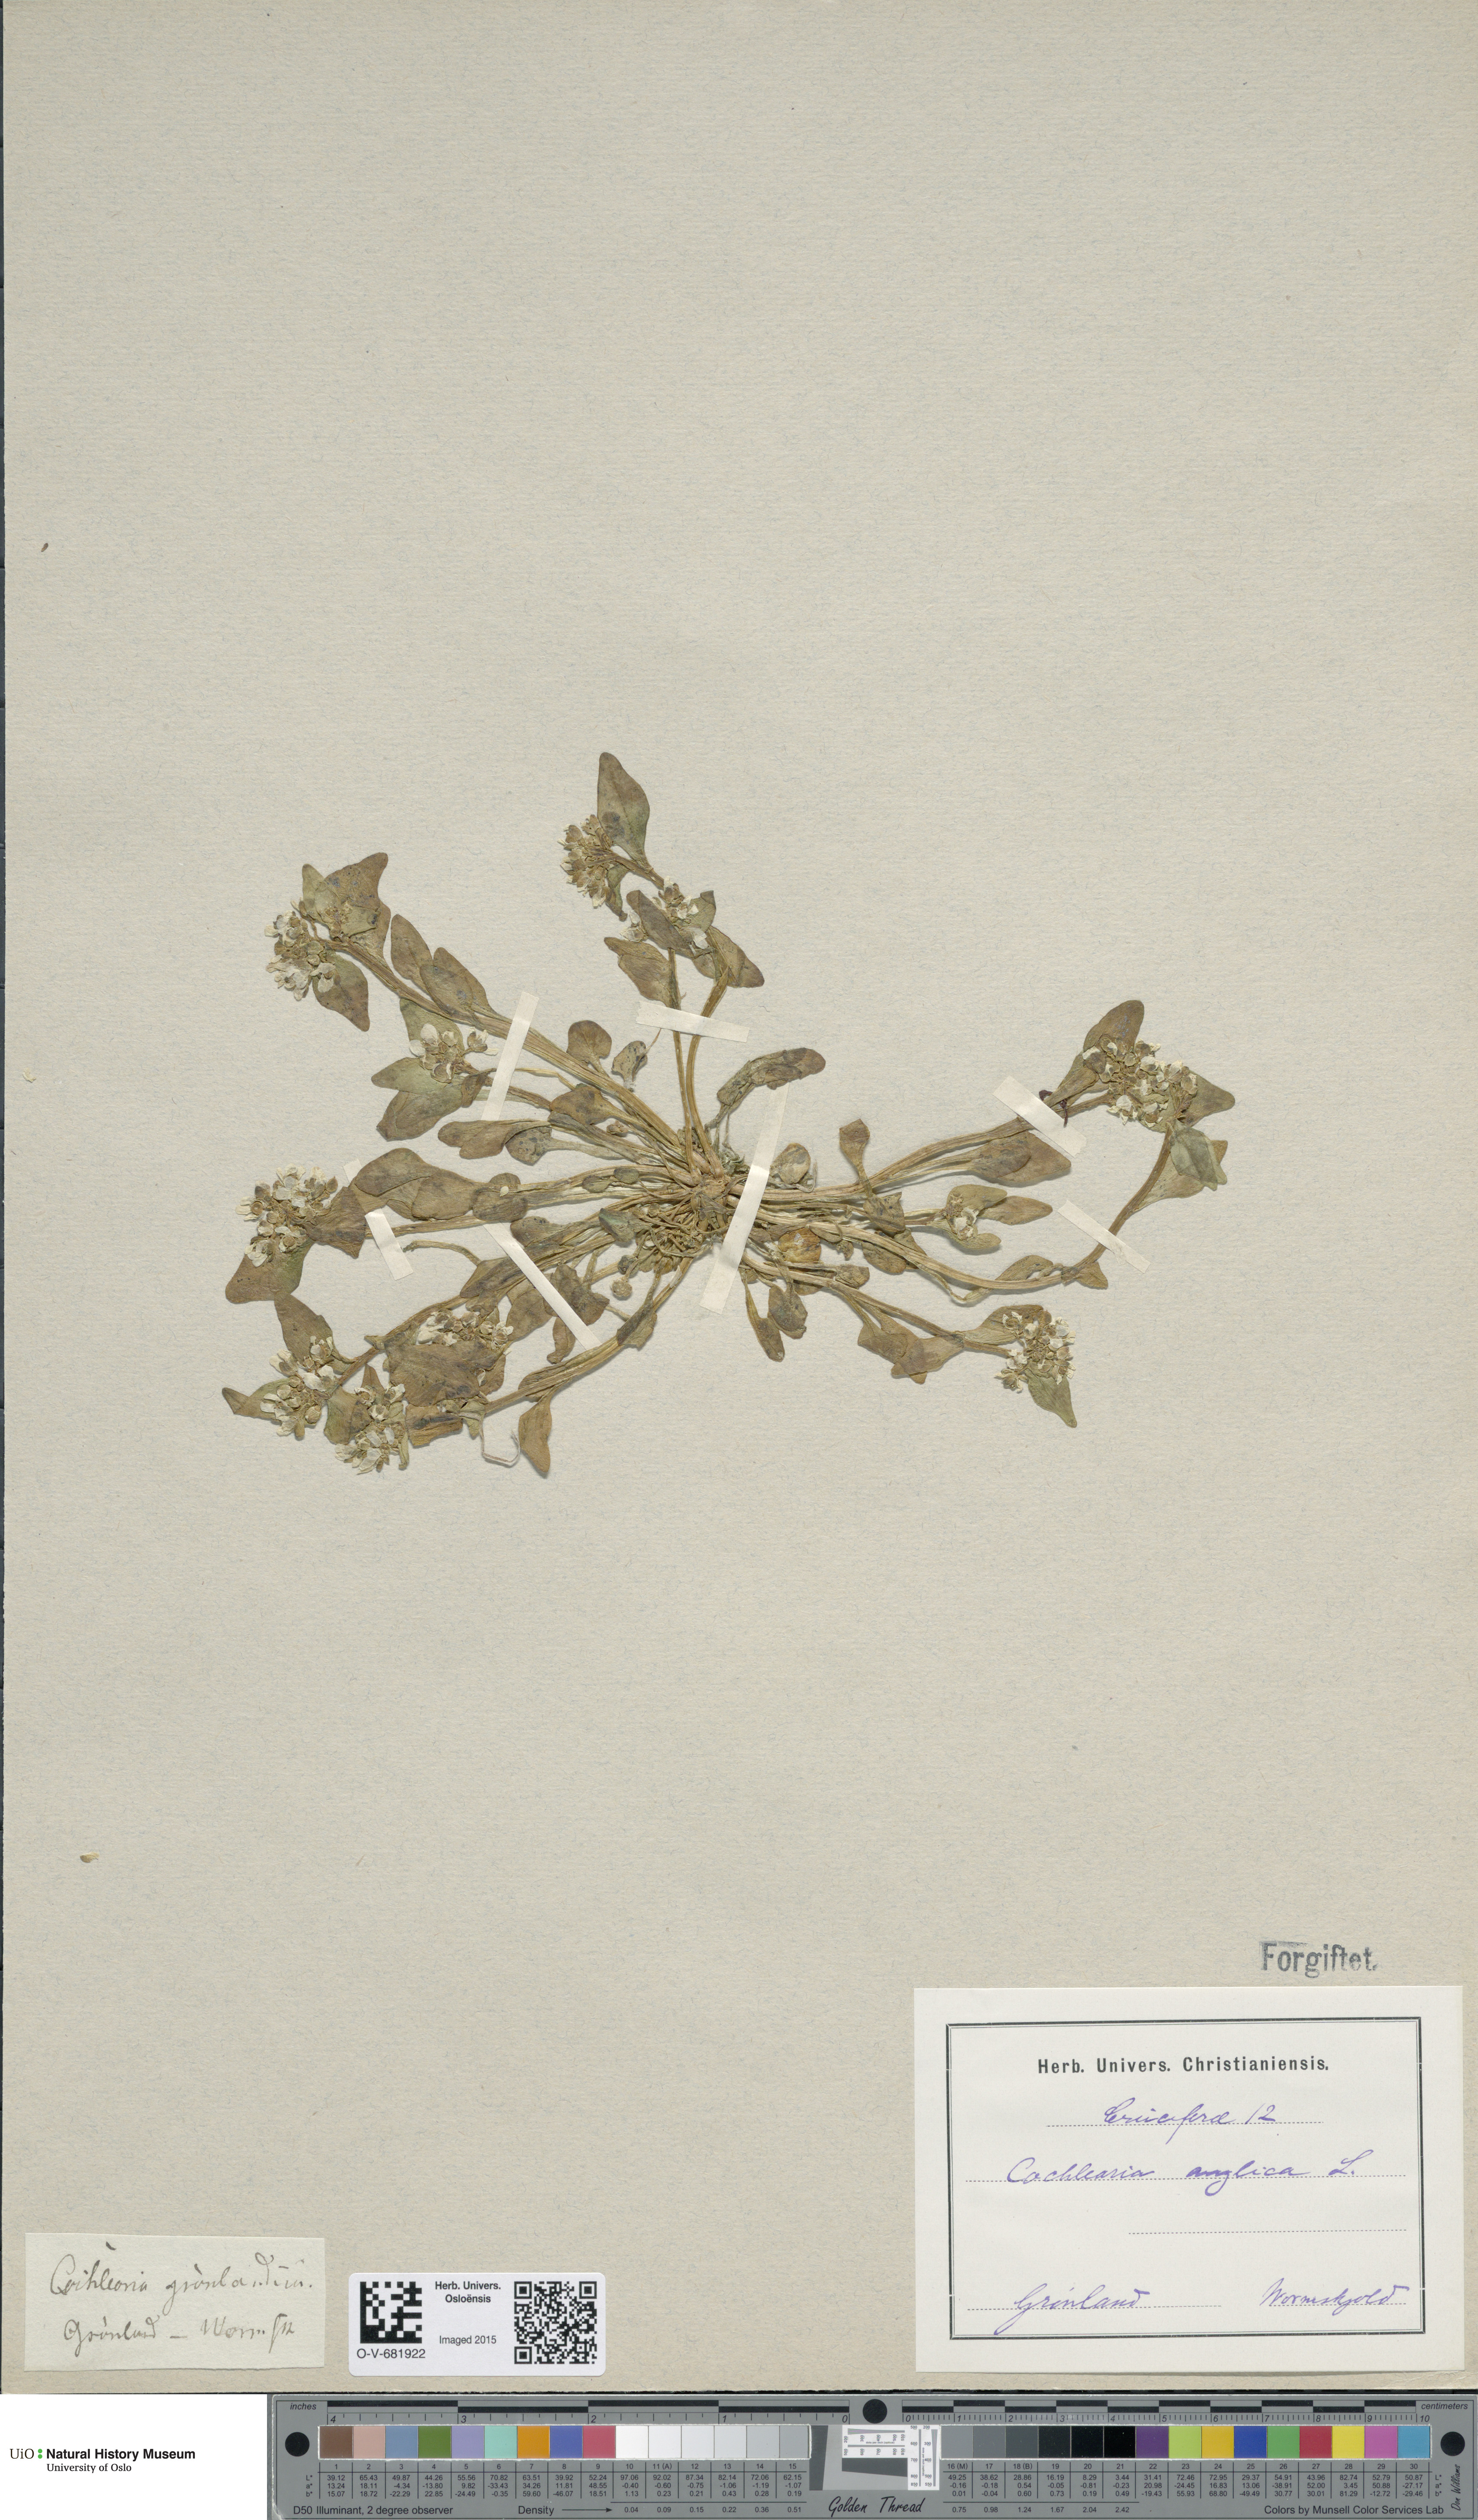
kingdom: Plantae
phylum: Tracheophyta
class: Magnoliopsida
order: Brassicales
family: Brassicaceae
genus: Cochlearia
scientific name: Cochlearia groenlandica
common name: Danish scurvygrass
